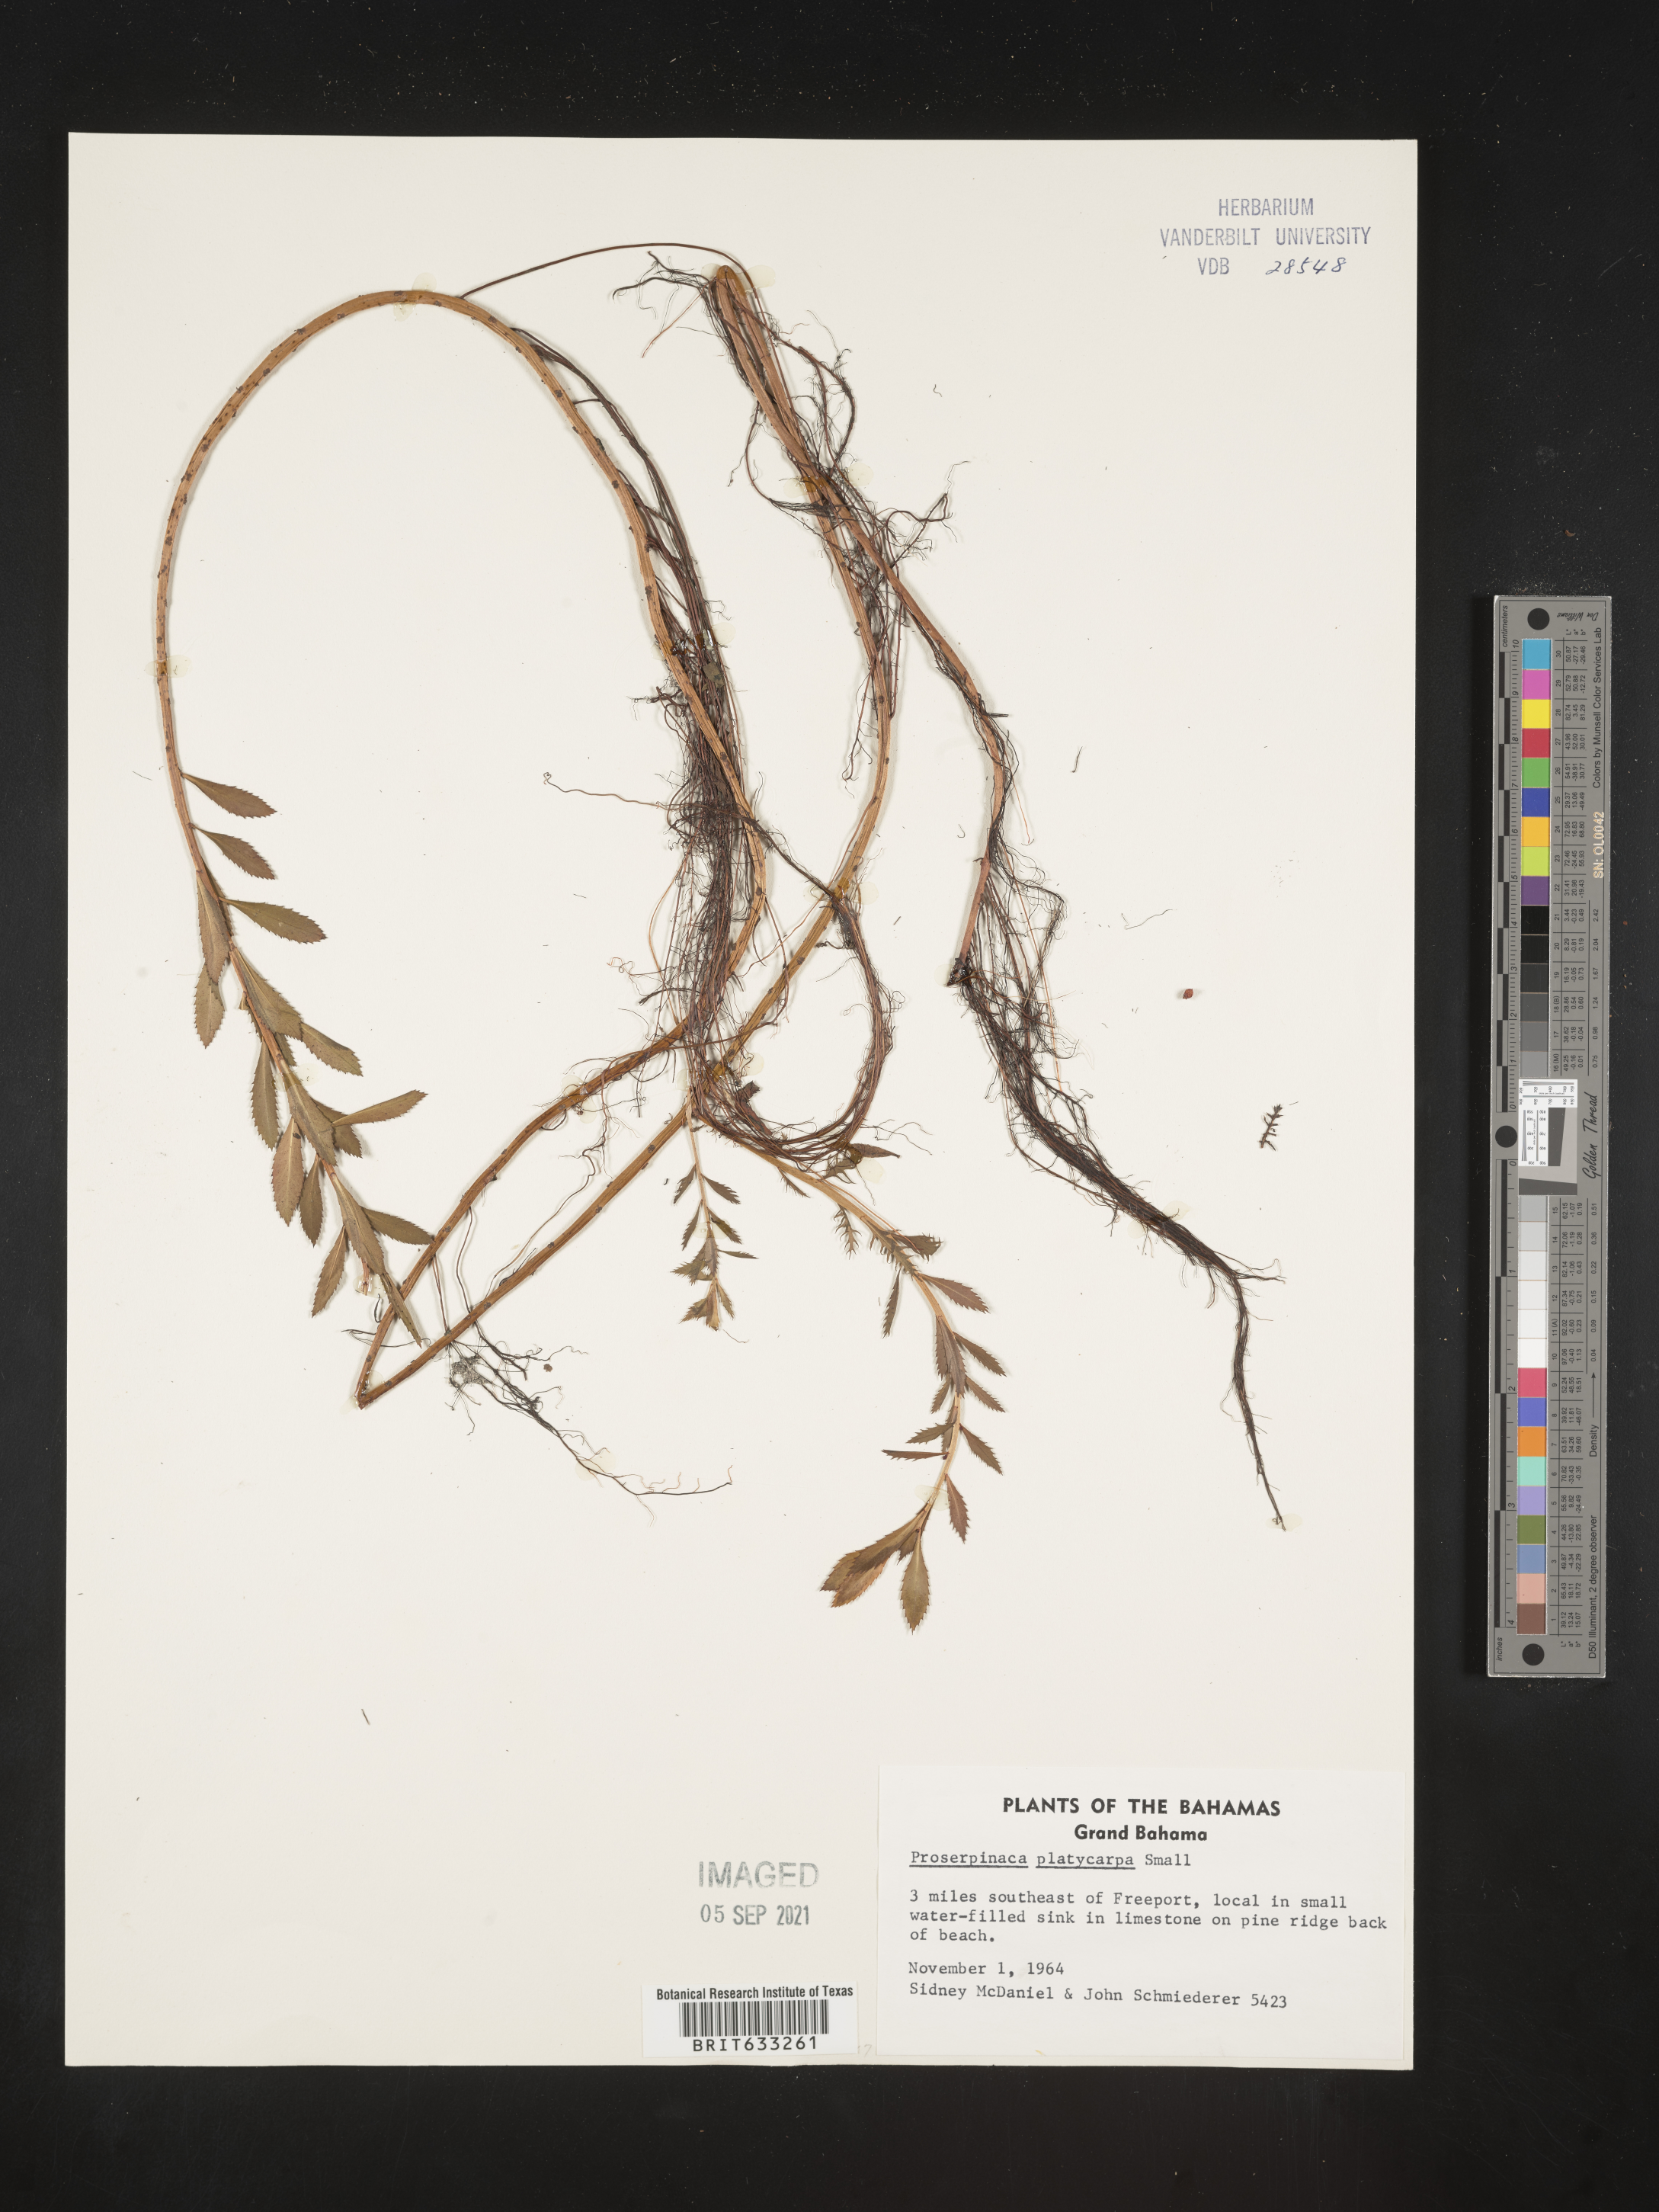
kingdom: Plantae
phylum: Tracheophyta
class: Magnoliopsida
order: Saxifragales
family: Haloragaceae
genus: Proserpinaca
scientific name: Proserpinaca
